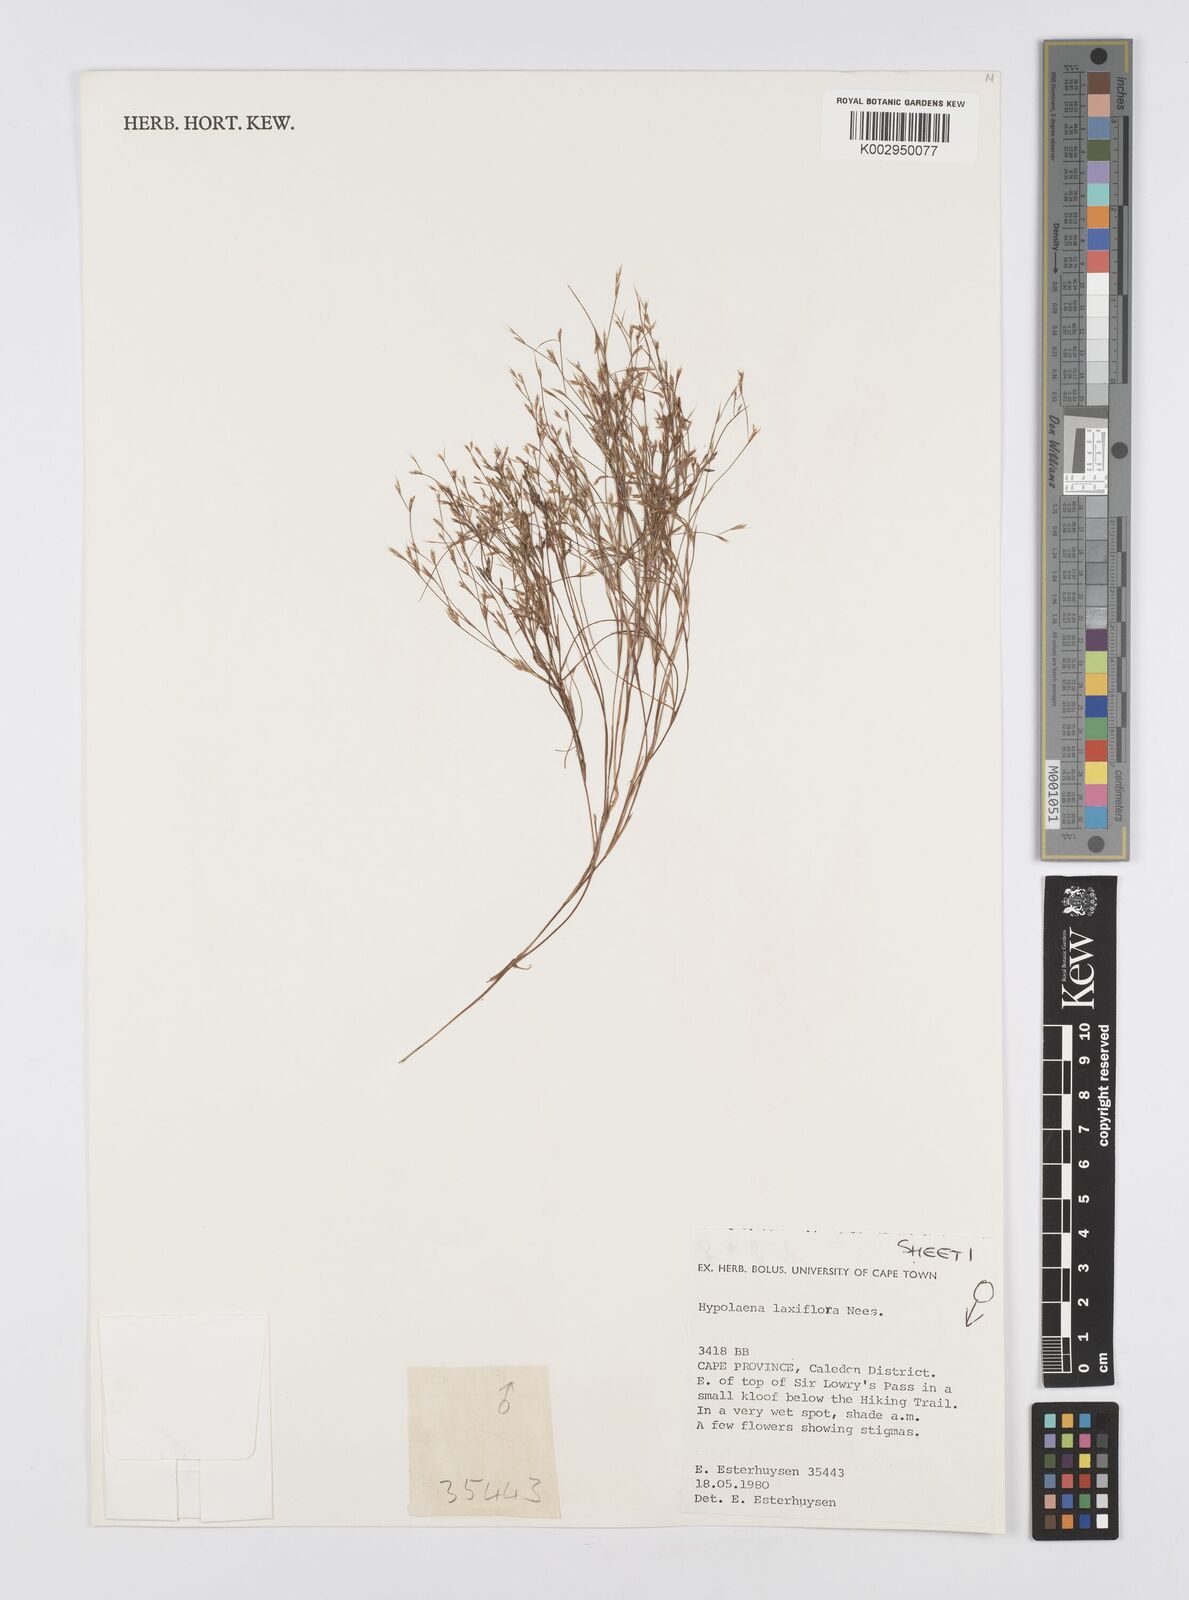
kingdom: Plantae
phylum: Tracheophyta
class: Liliopsida
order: Poales
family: Restionaceae
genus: Anthochortus
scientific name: Anthochortus laxiflorus
